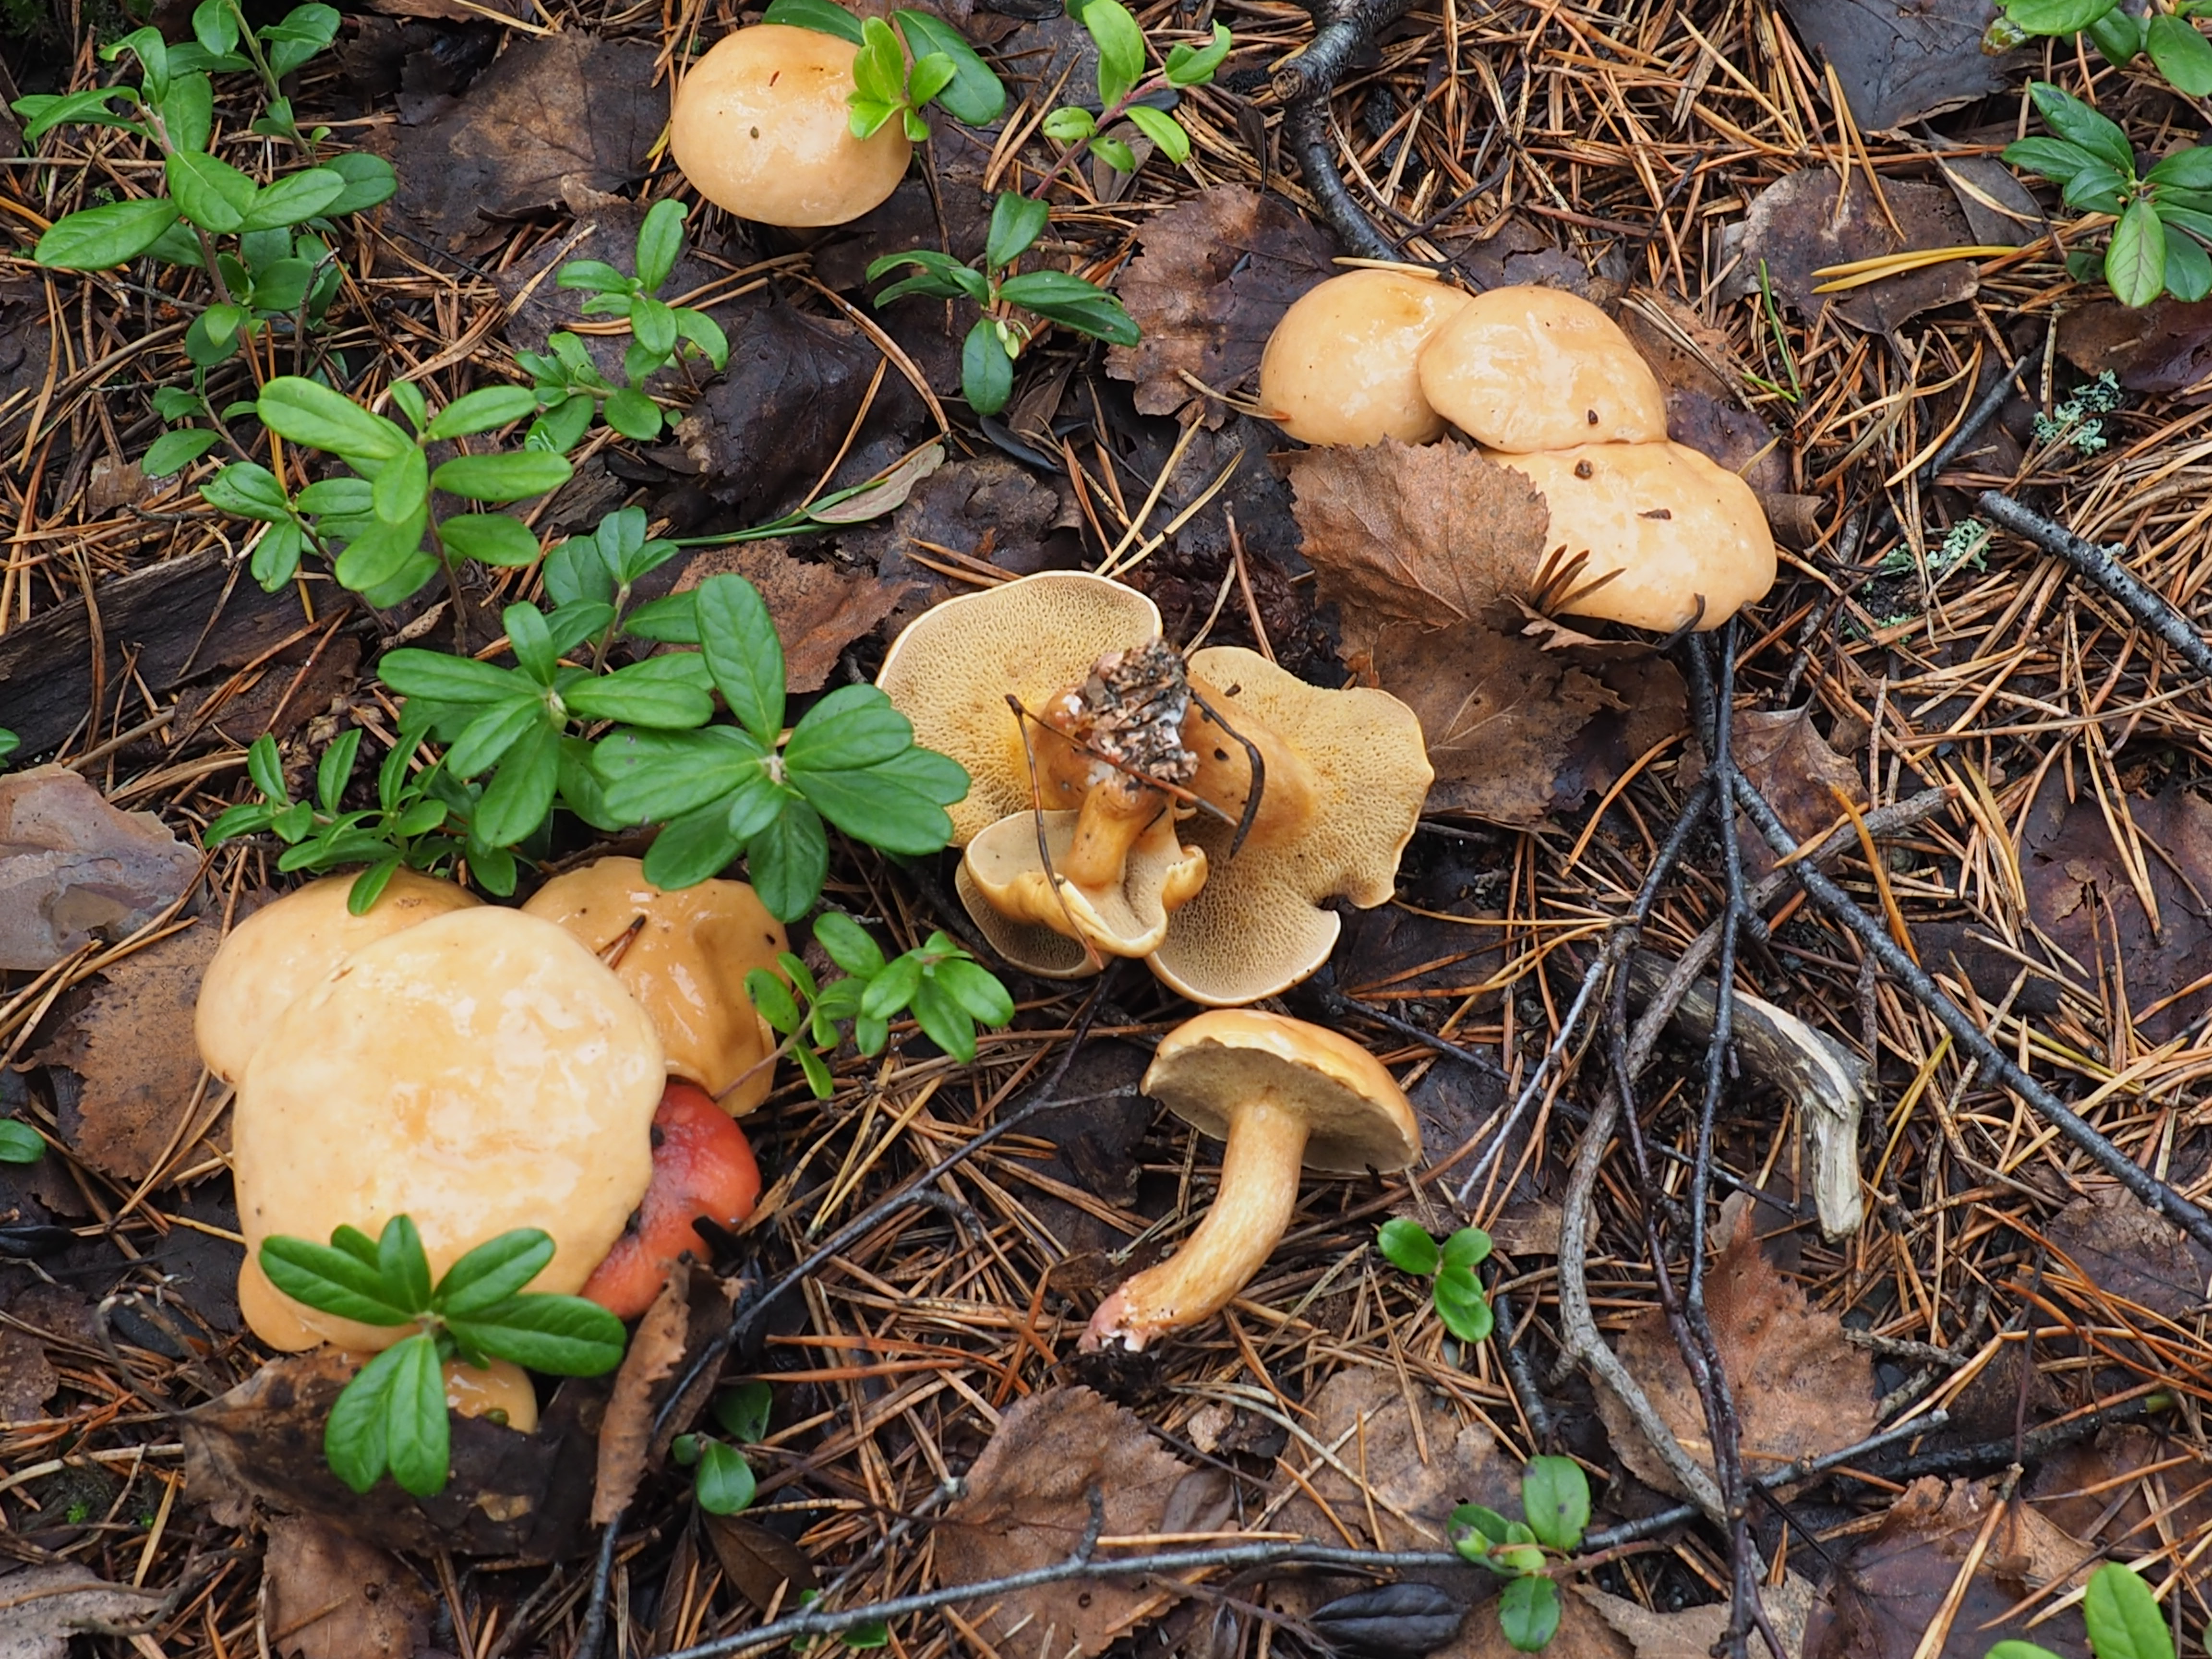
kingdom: Fungi
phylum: Basidiomycota
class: Agaricomycetes
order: Boletales
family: Suillaceae
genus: Suillus
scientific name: Suillus bovinus
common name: Bovine bolete
